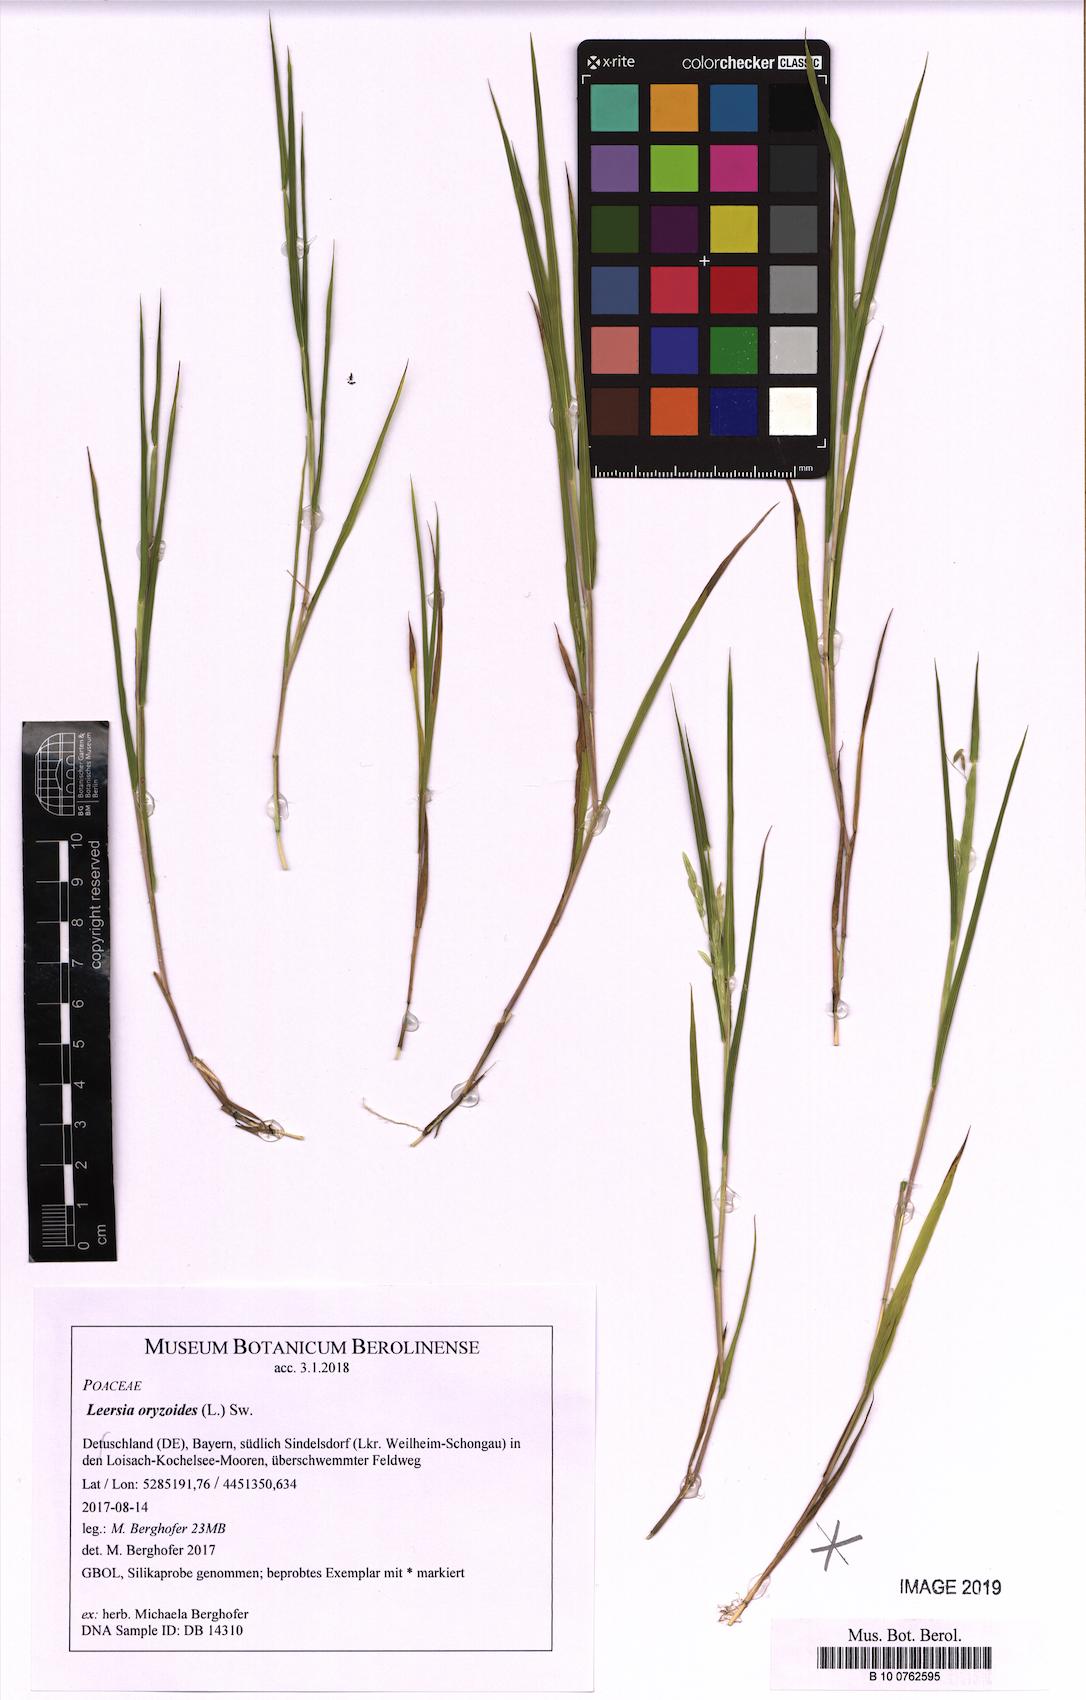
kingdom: Plantae
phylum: Tracheophyta
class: Liliopsida
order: Poales
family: Poaceae
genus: Leersia
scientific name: Leersia oryzoides
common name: Cut-grass
